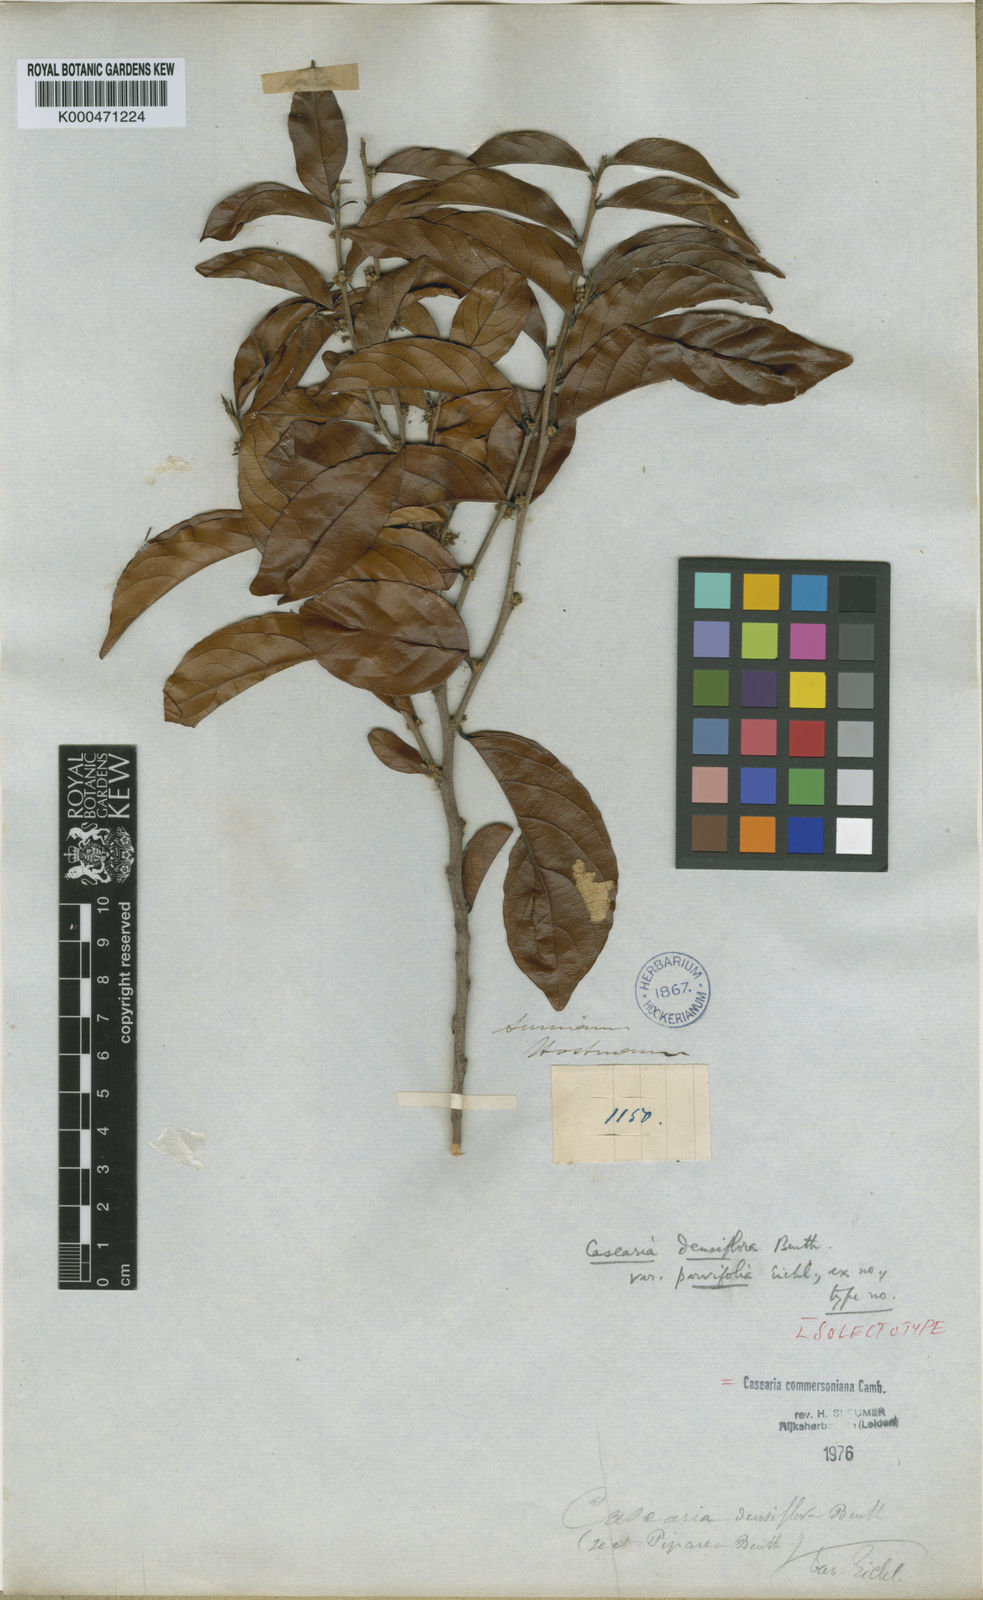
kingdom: Plantae
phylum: Tracheophyta
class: Magnoliopsida
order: Malpighiales
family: Salicaceae
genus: Piparea
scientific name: Piparea dentata
